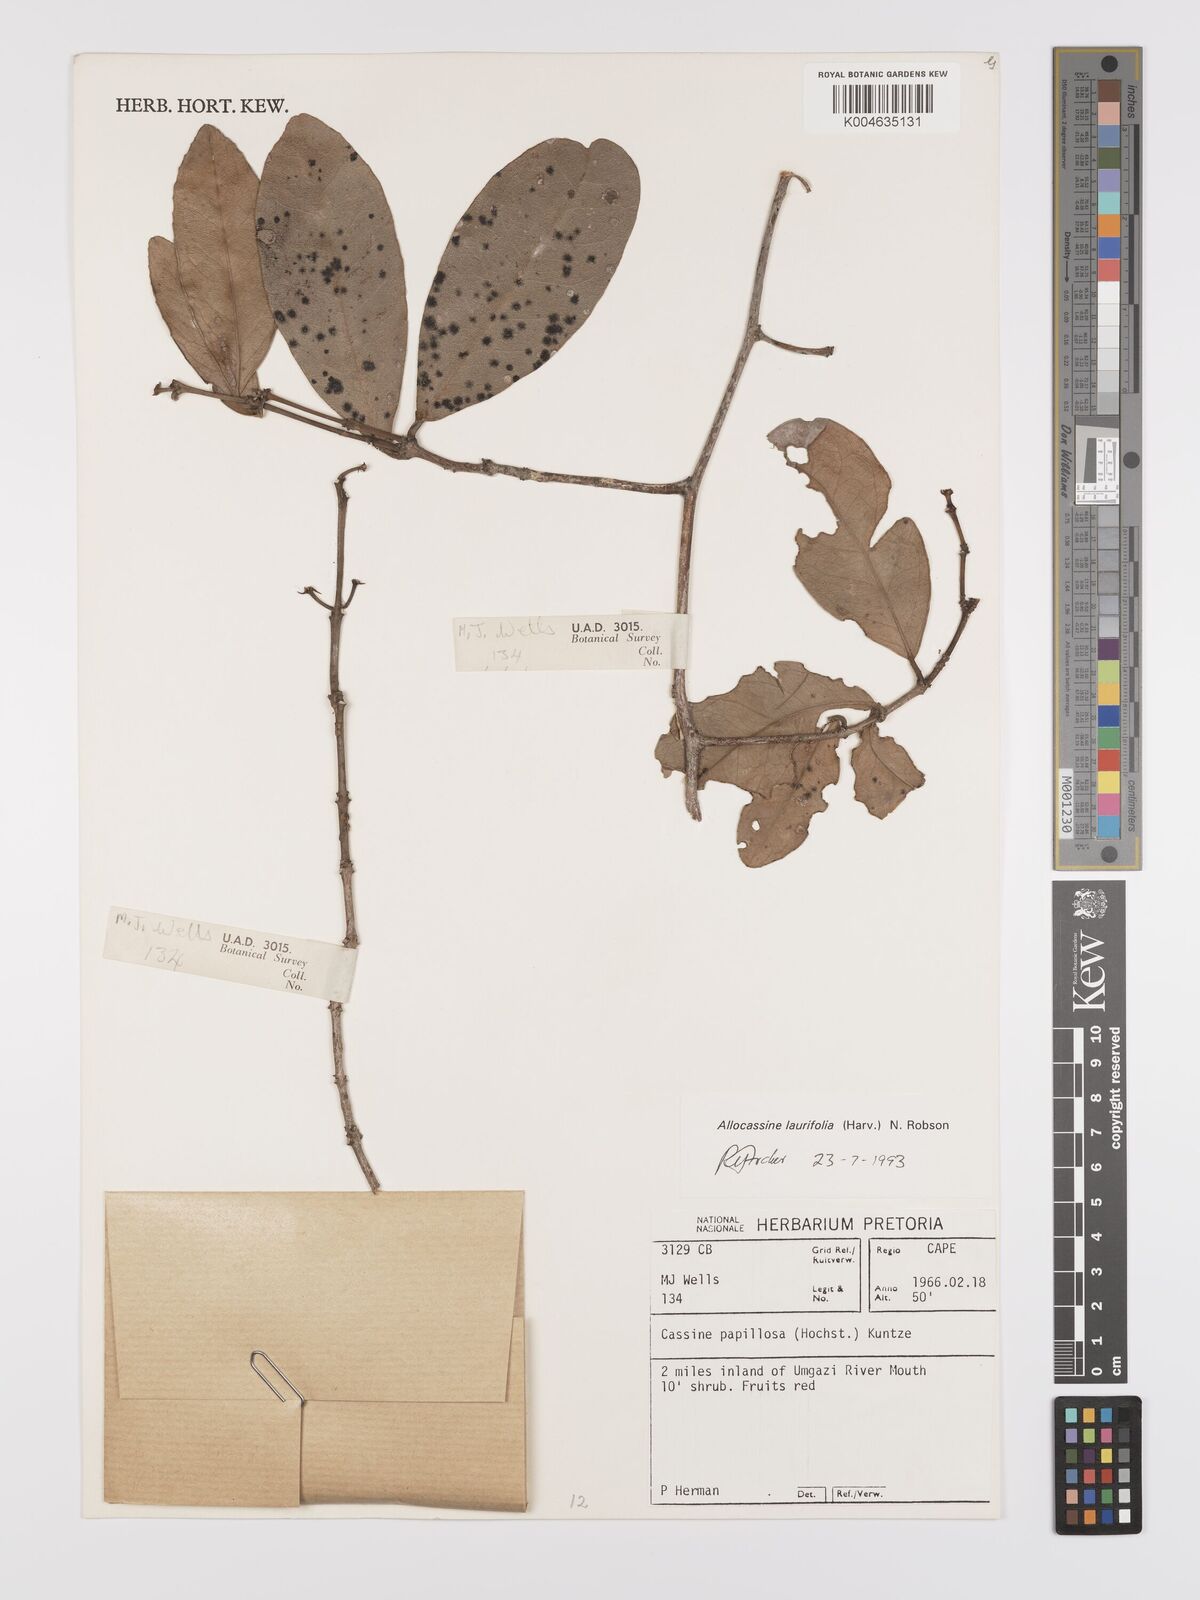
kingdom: Plantae
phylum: Tracheophyta
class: Magnoliopsida
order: Celastrales
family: Celastraceae
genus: Allocassine
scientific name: Allocassine
